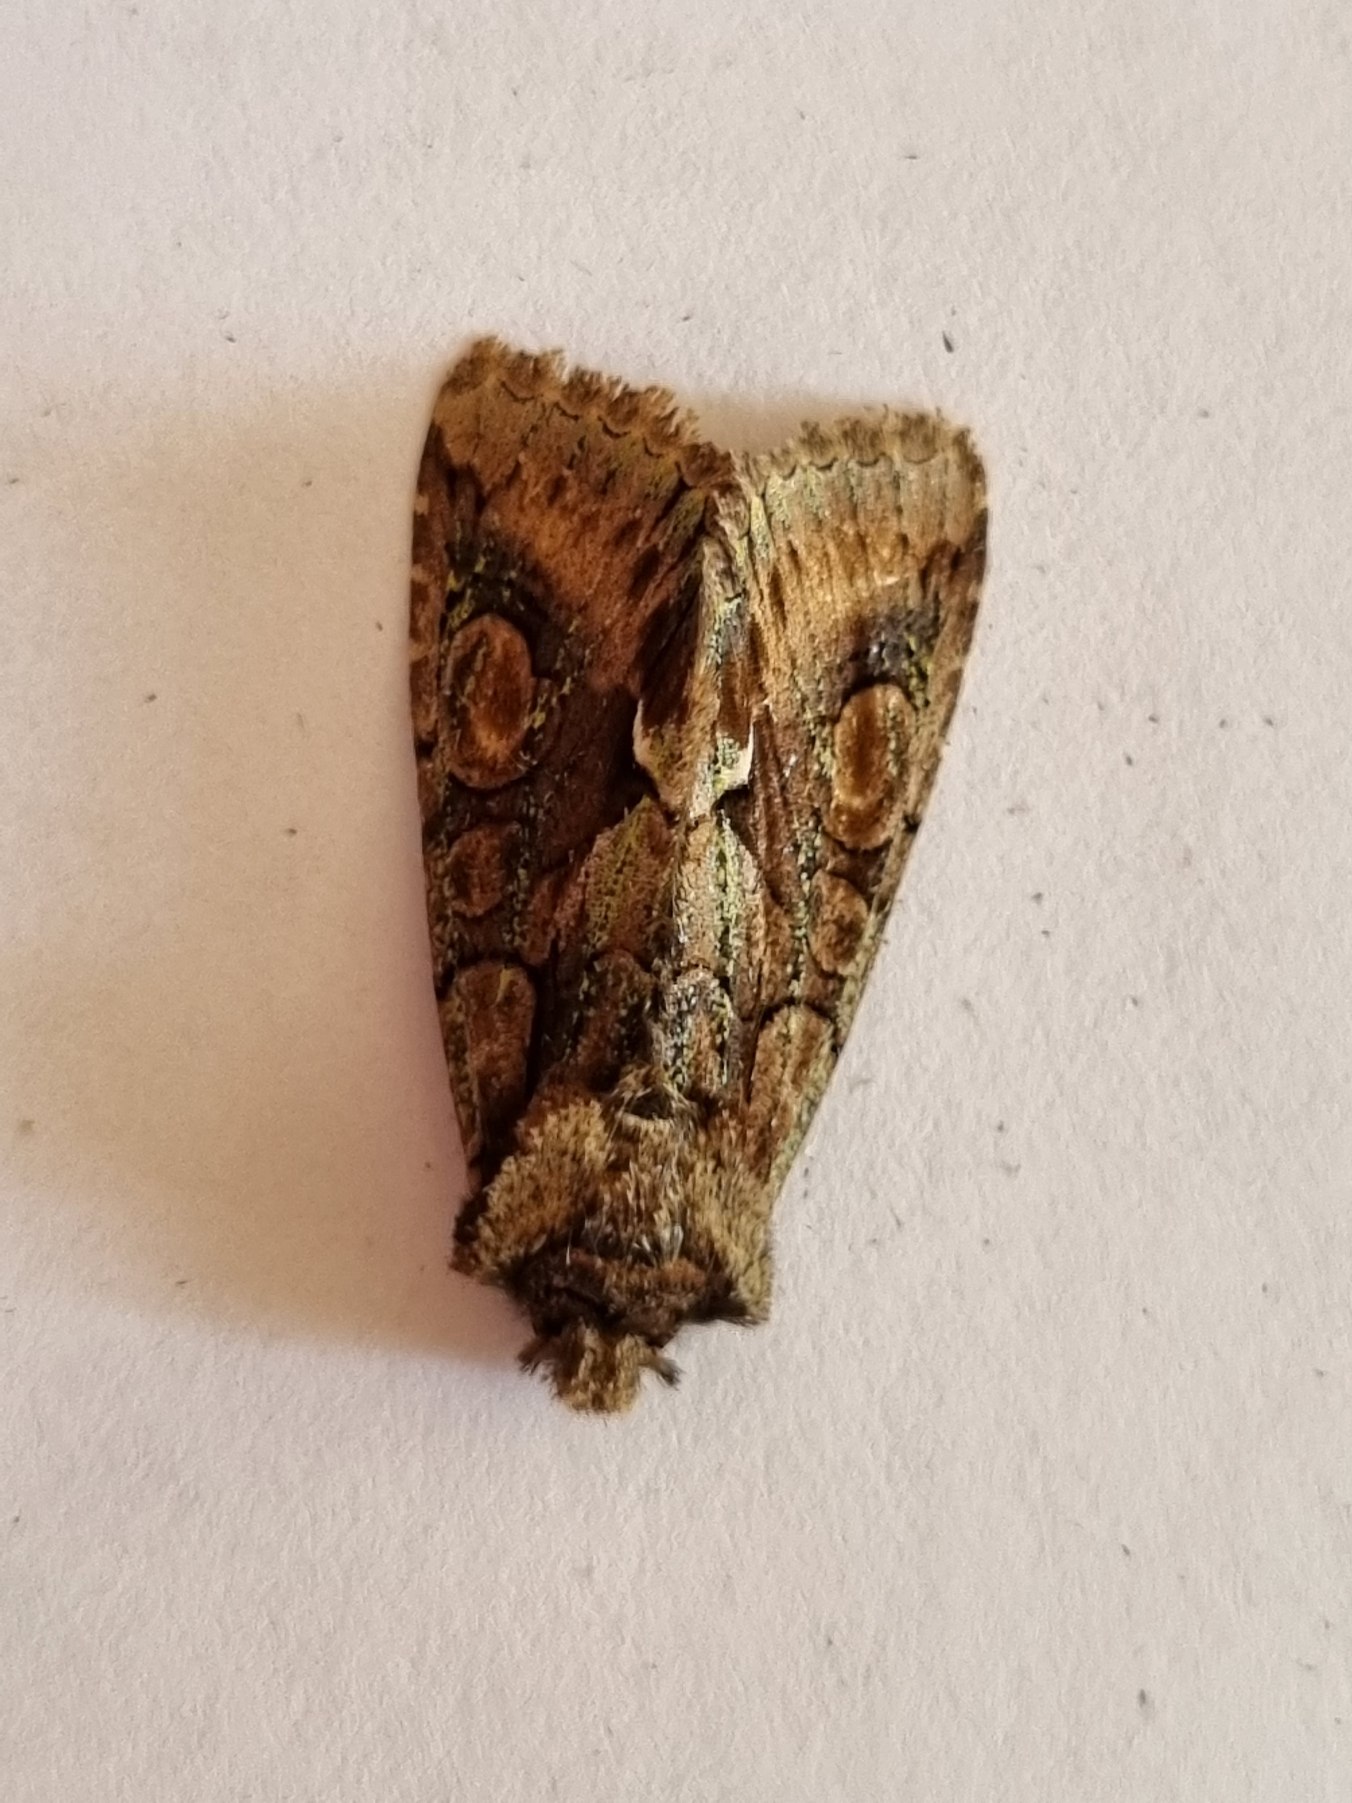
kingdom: Animalia
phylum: Arthropoda
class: Insecta
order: Lepidoptera
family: Noctuidae
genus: Allophyes
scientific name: Allophyes oxyacanthae
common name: Tjørneugle
